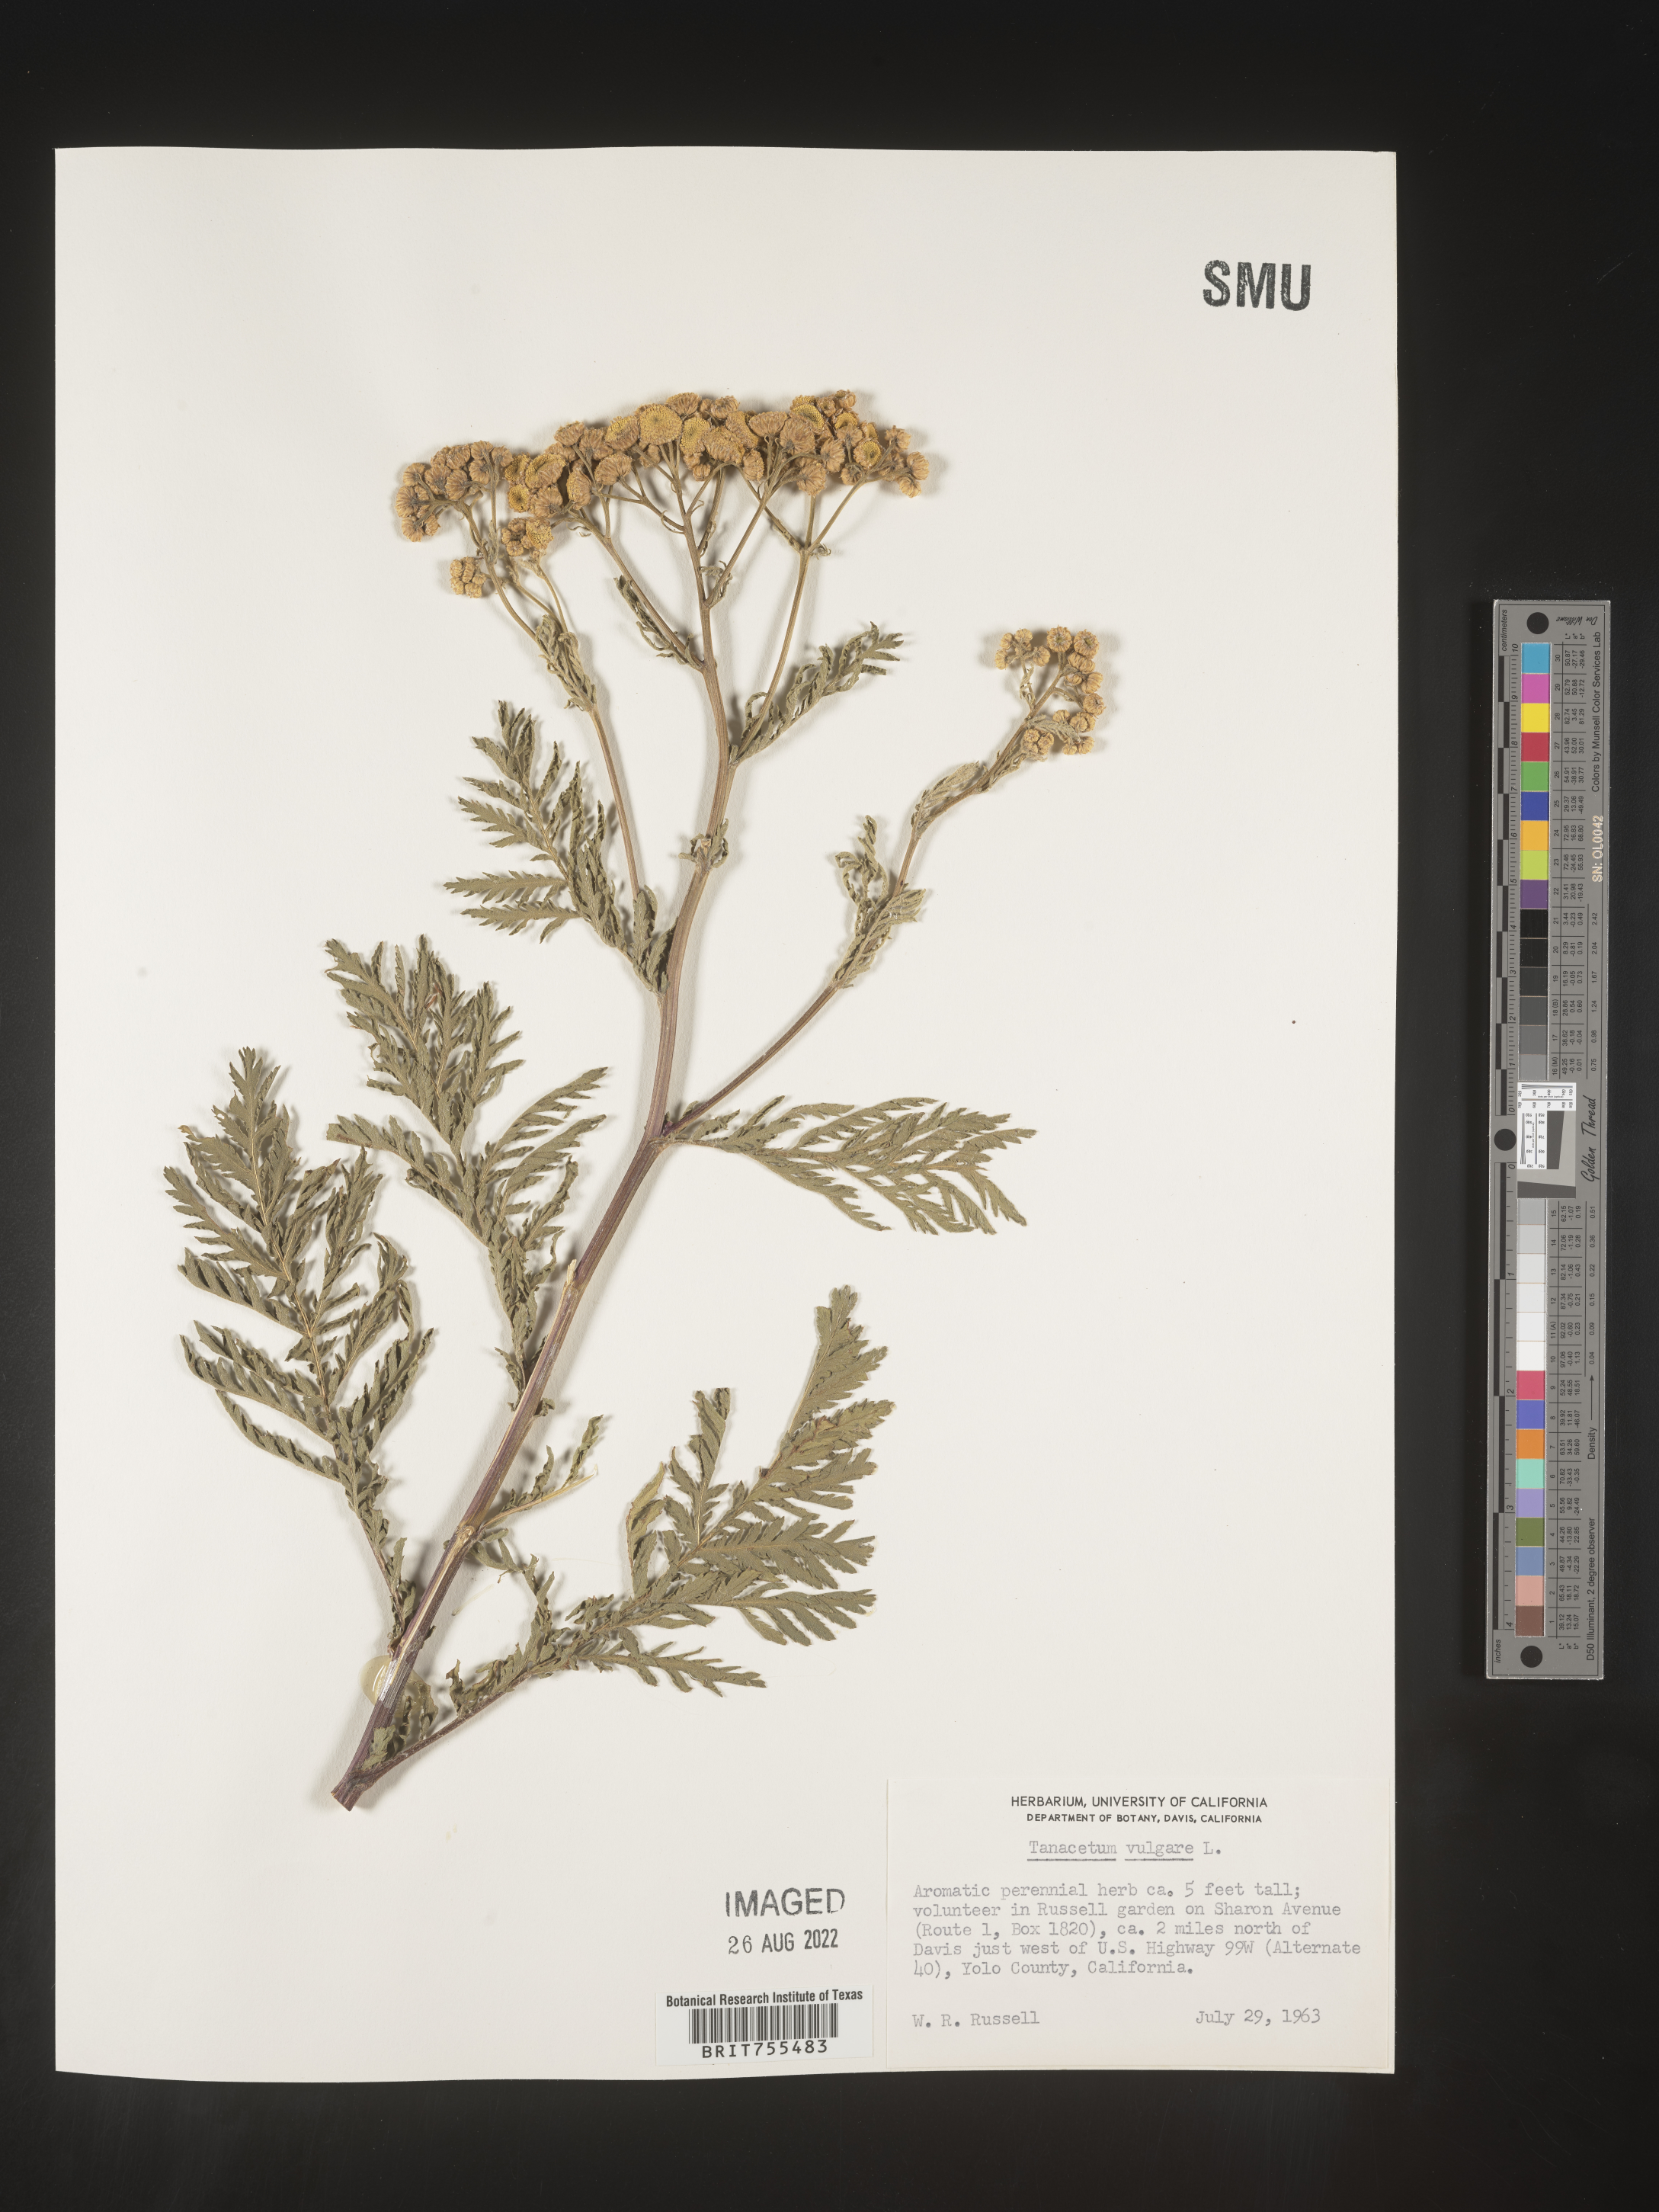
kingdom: Plantae
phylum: Tracheophyta
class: Magnoliopsida
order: Asterales
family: Asteraceae
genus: Tanacetum
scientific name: Tanacetum vulgare
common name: Common tansy
